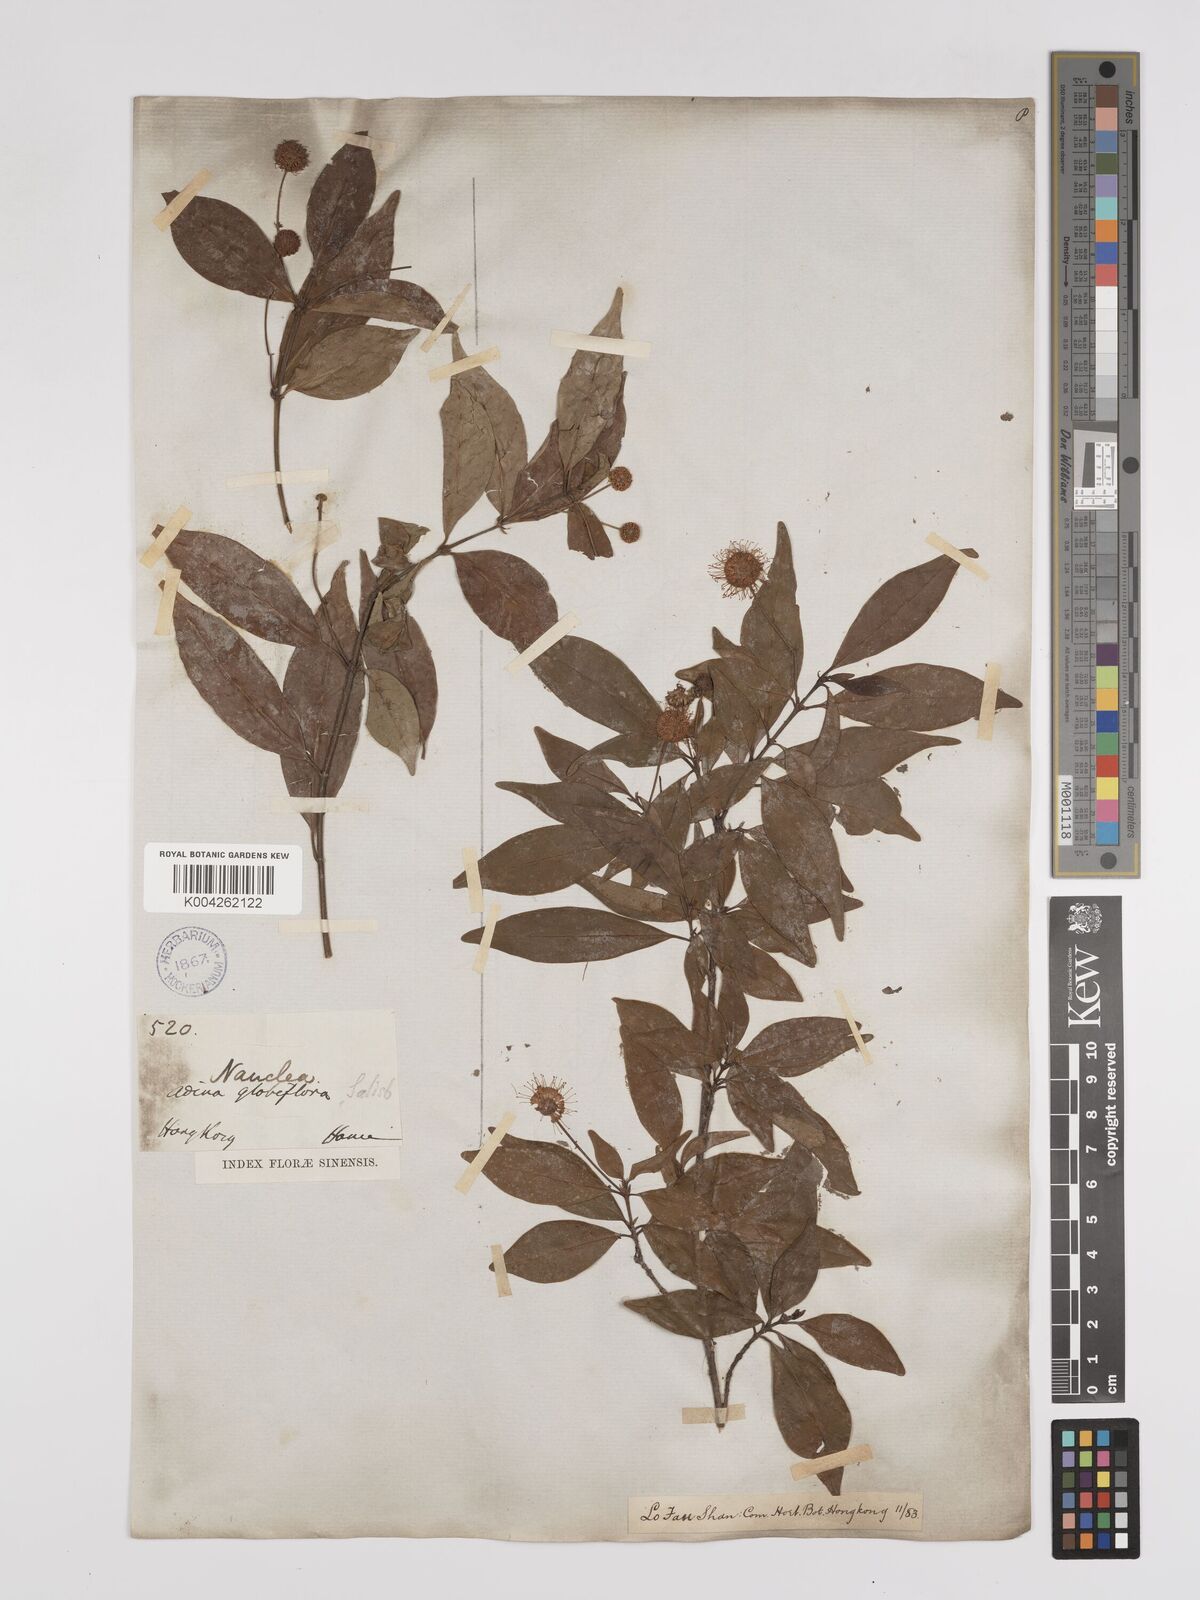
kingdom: Plantae
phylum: Tracheophyta
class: Magnoliopsida
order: Gentianales
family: Rubiaceae
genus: Adina
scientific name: Adina pilulifera
